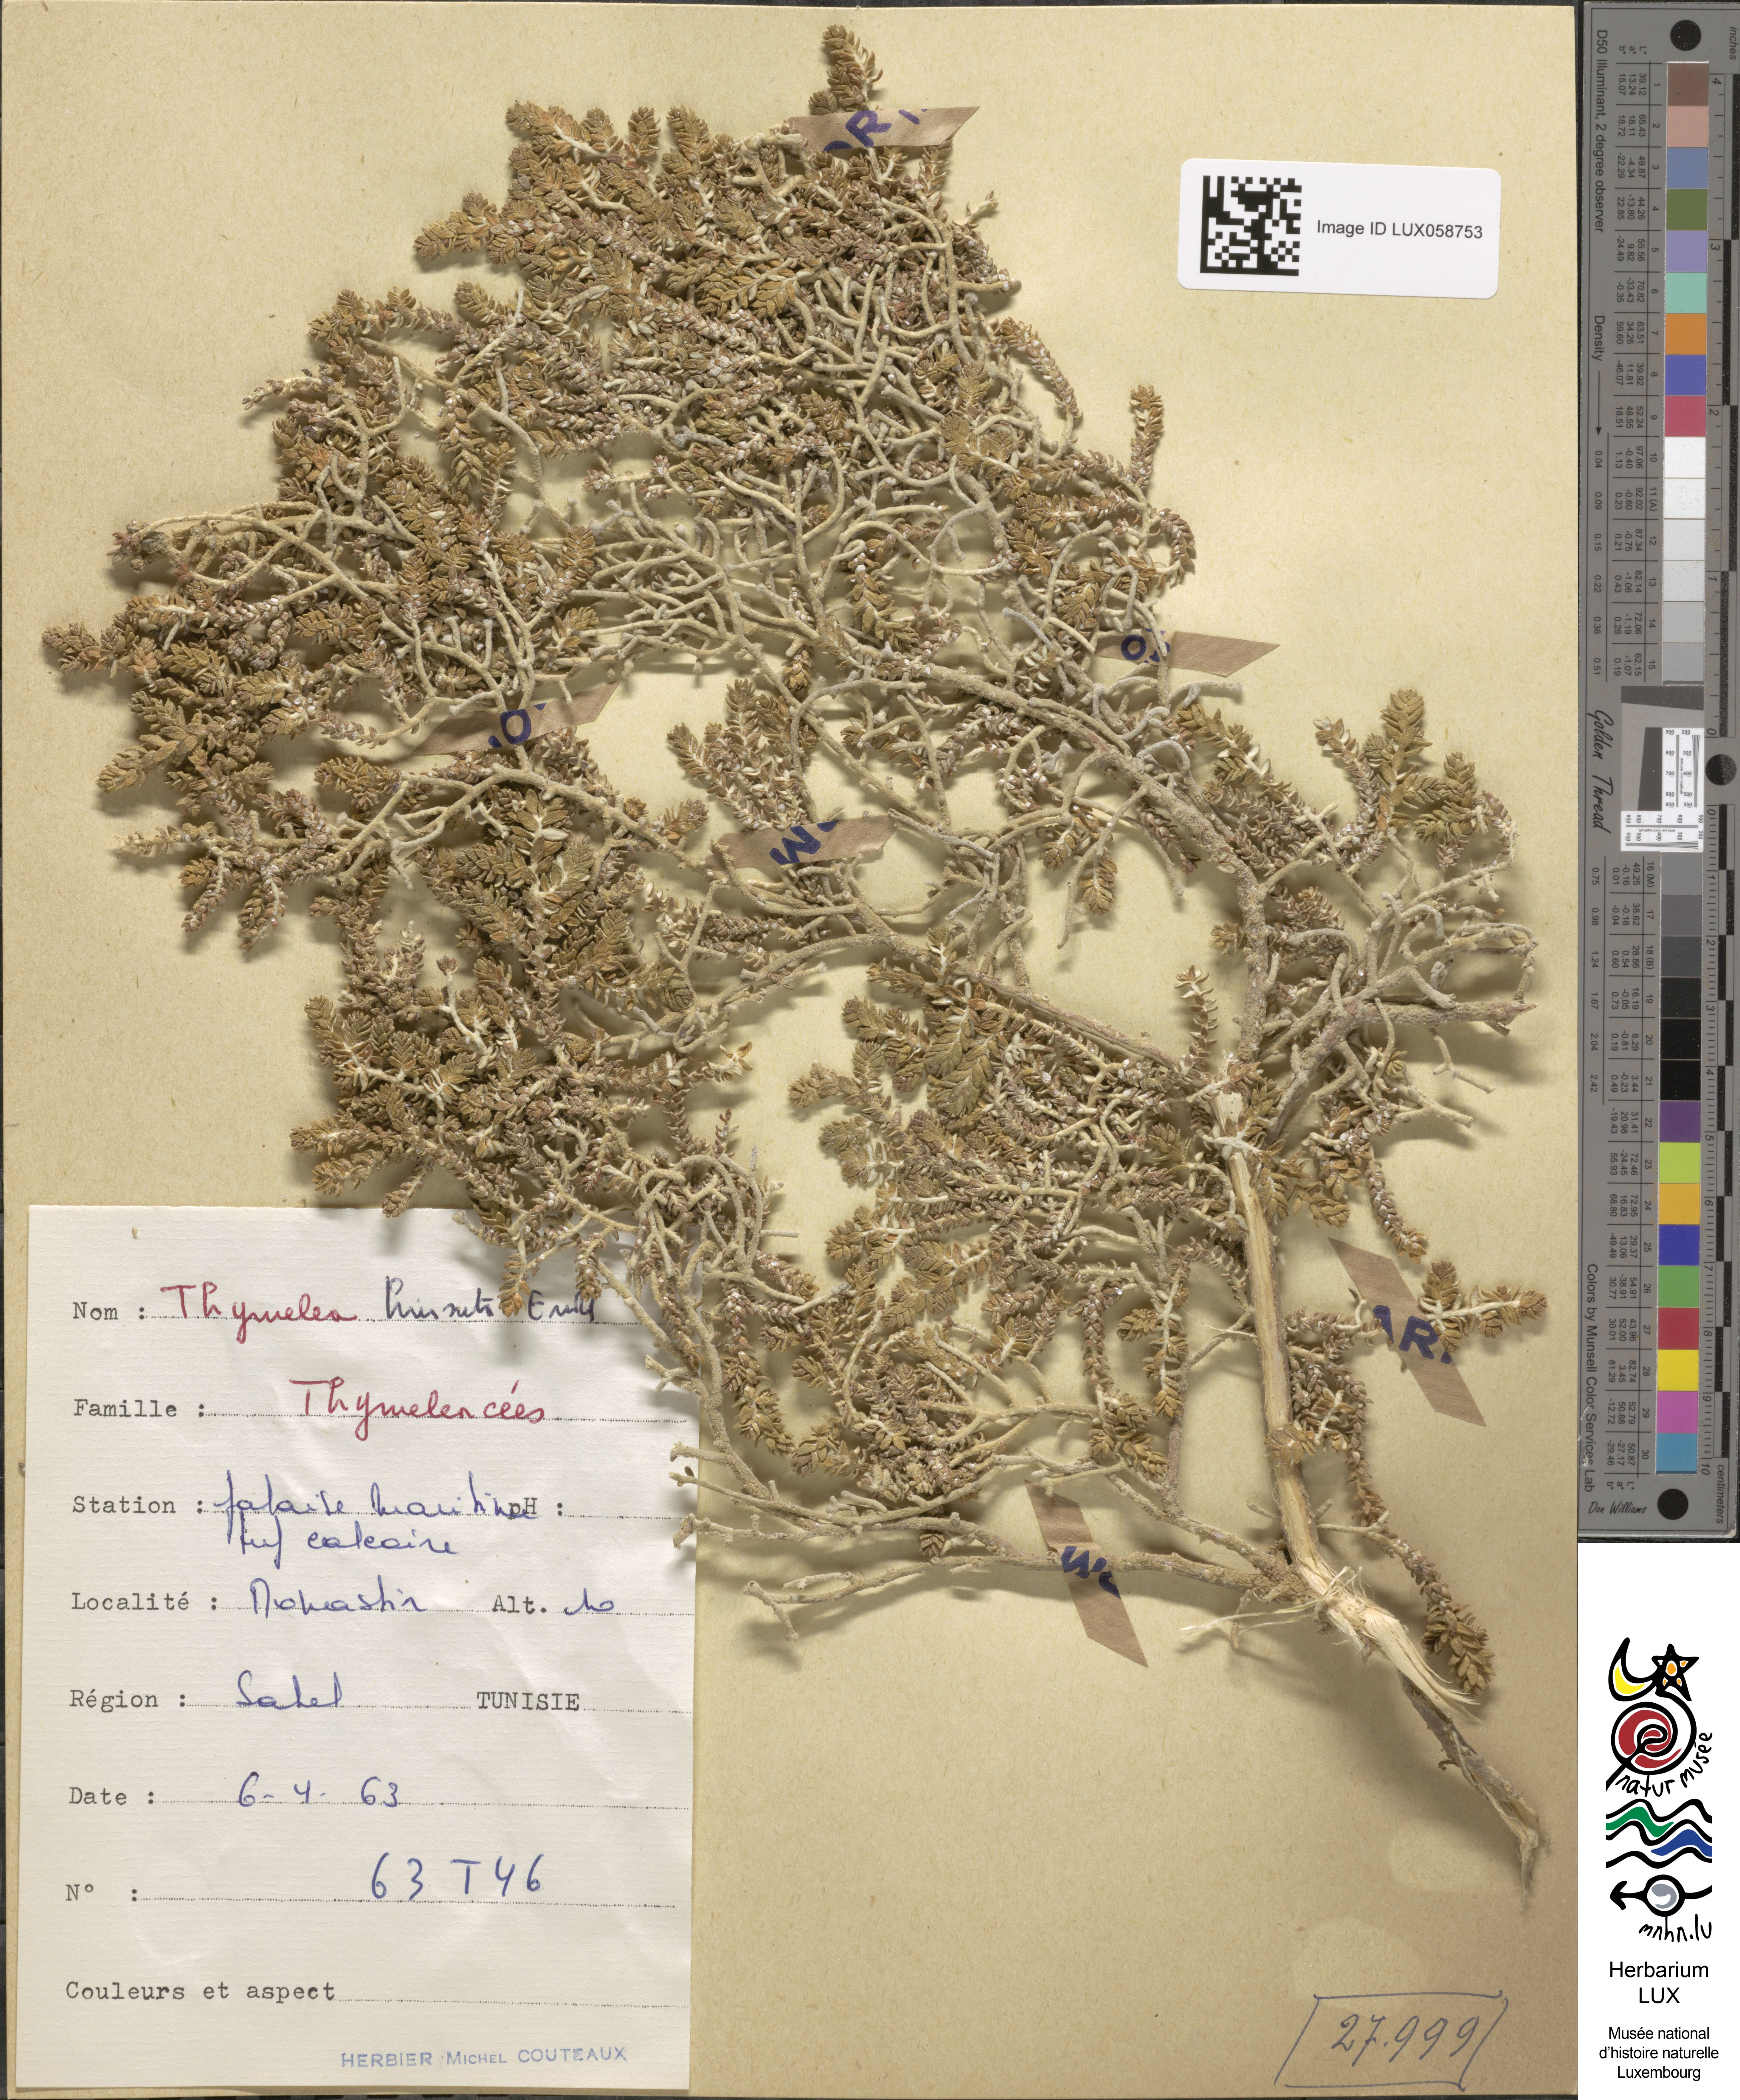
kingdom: Plantae
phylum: Tracheophyta
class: Magnoliopsida
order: Malvales
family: Thymelaeaceae
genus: Thymelaea
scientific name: Thymelaea hirsuta
